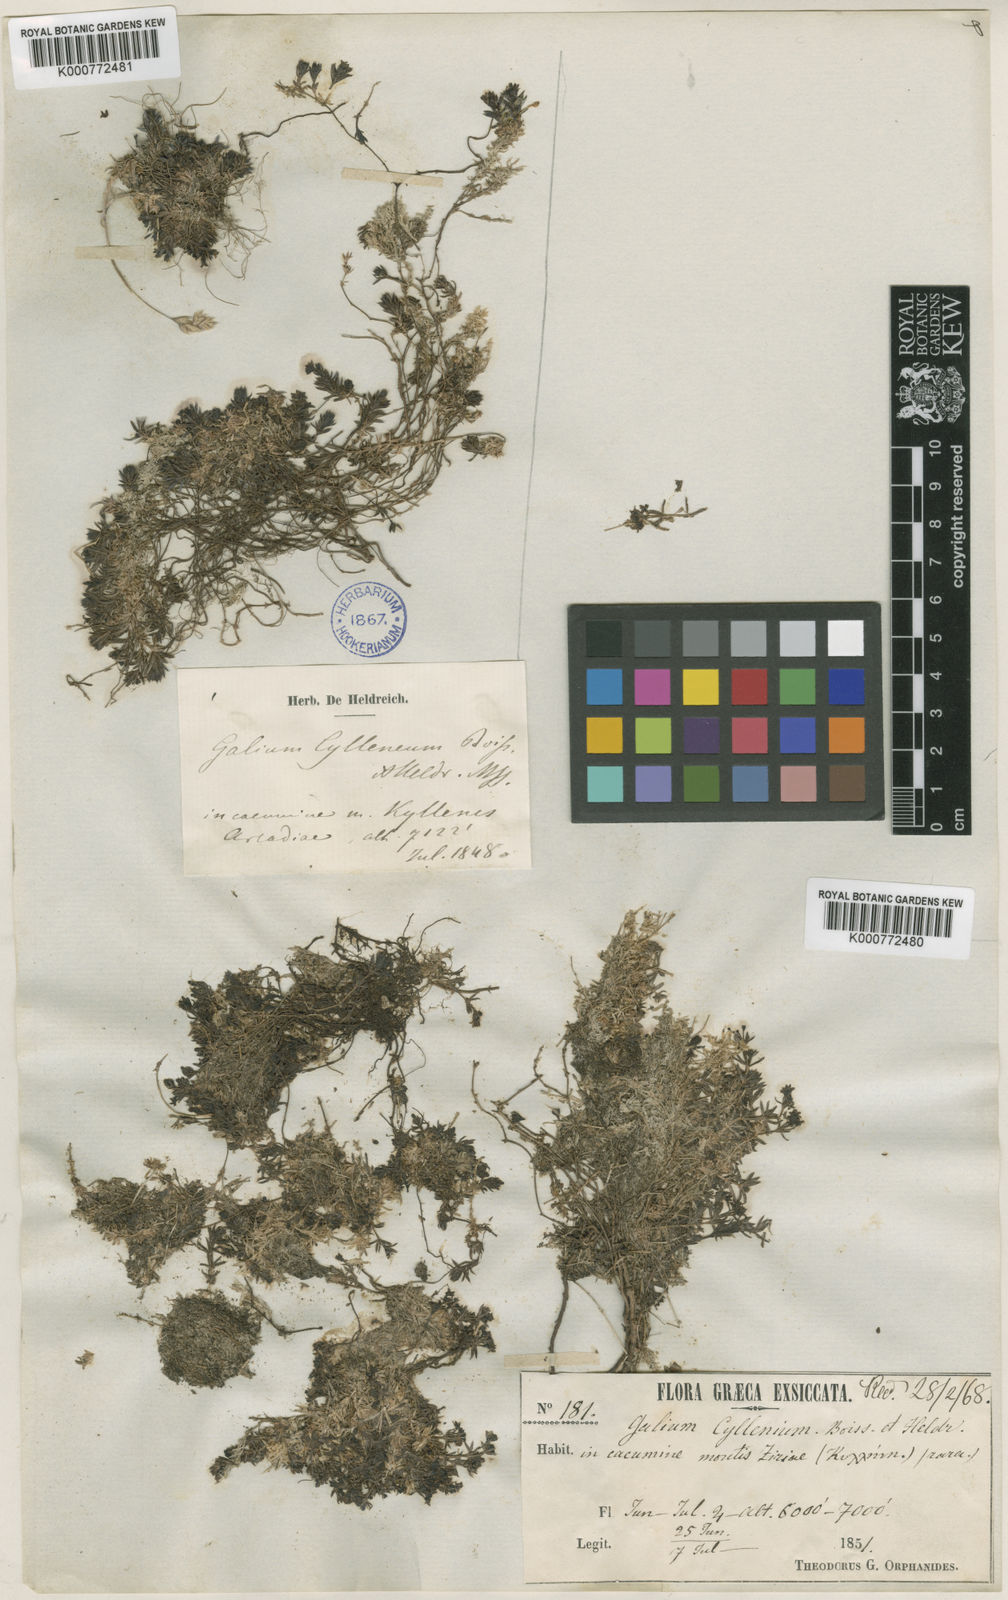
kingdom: Plantae
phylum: Tracheophyta
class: Magnoliopsida
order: Gentianales
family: Rubiaceae
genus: Galium
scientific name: Galium cyllenium
